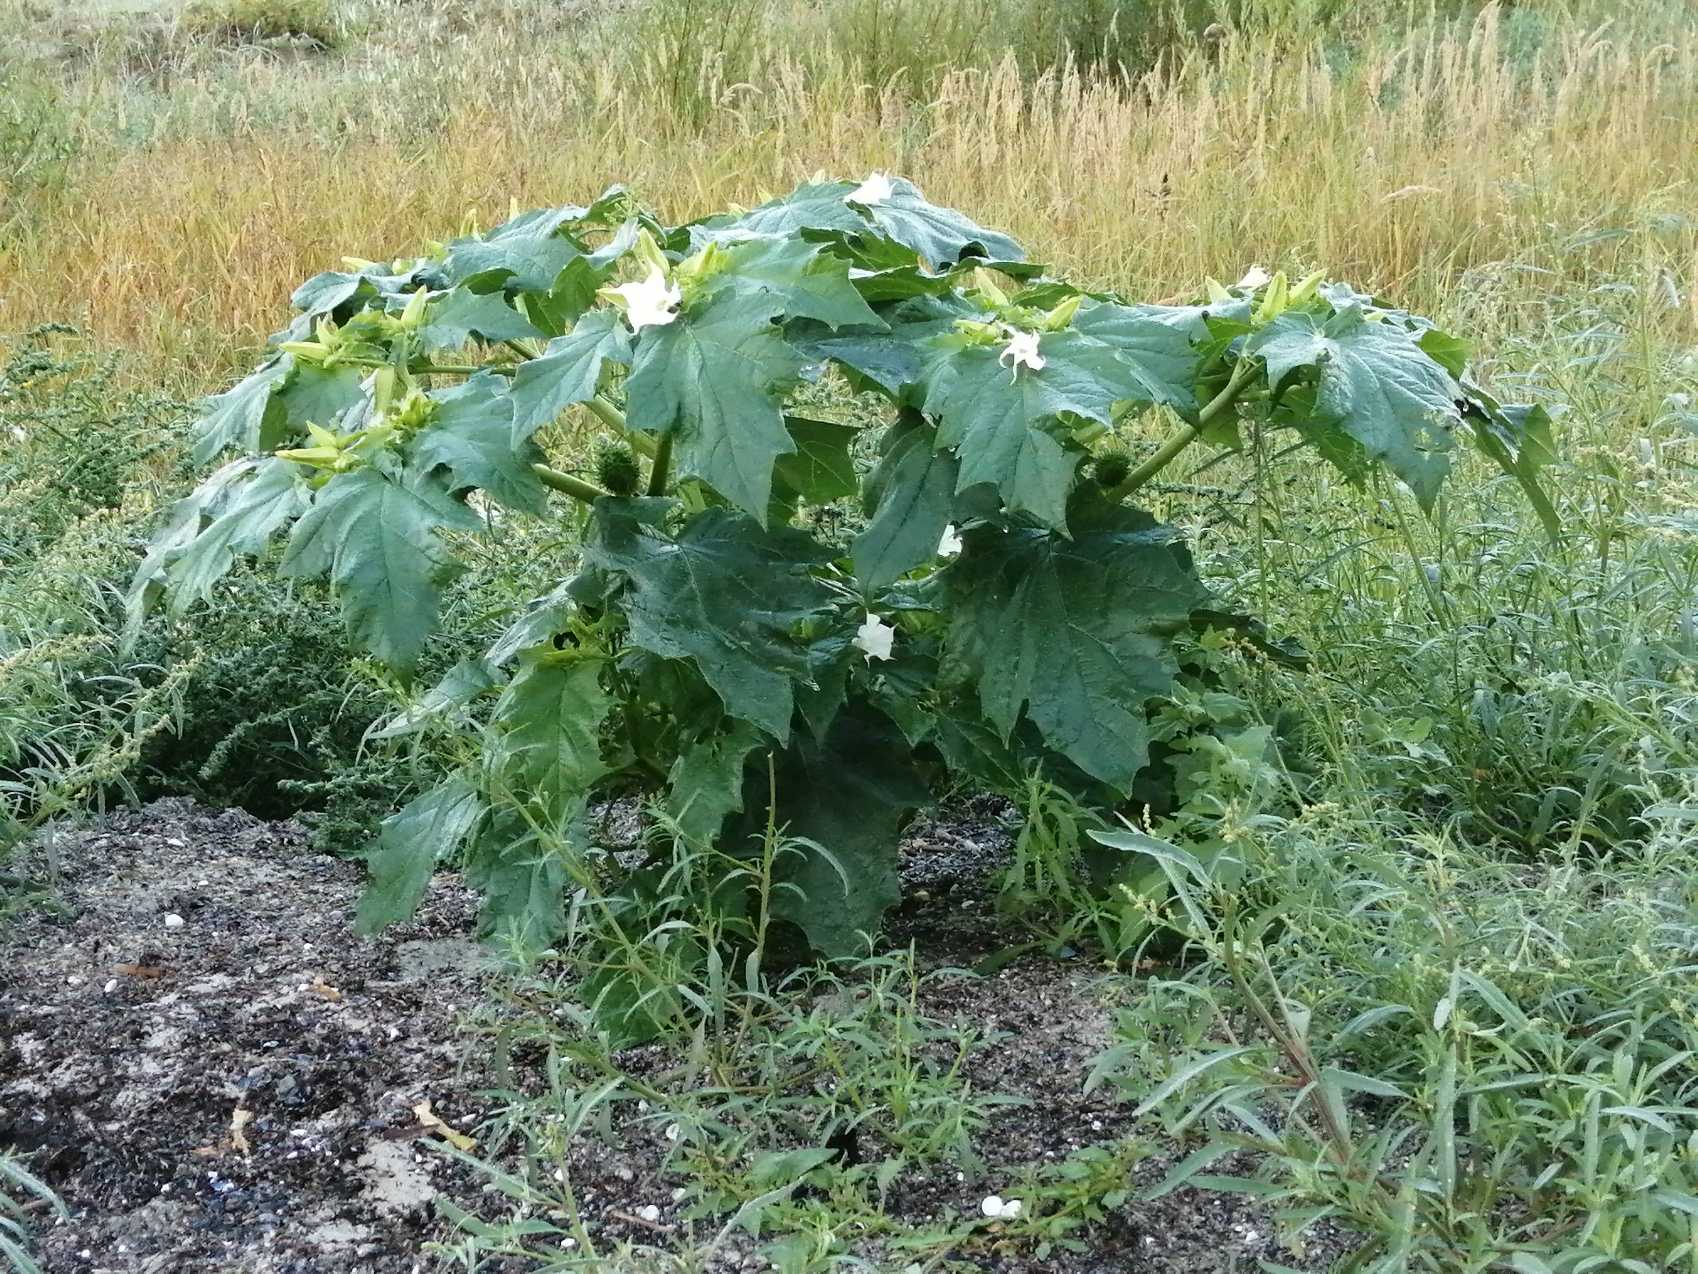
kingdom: Plantae
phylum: Tracheophyta
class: Magnoliopsida
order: Solanales
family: Solanaceae
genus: Datura
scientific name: Datura stramonium
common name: Pigæble
